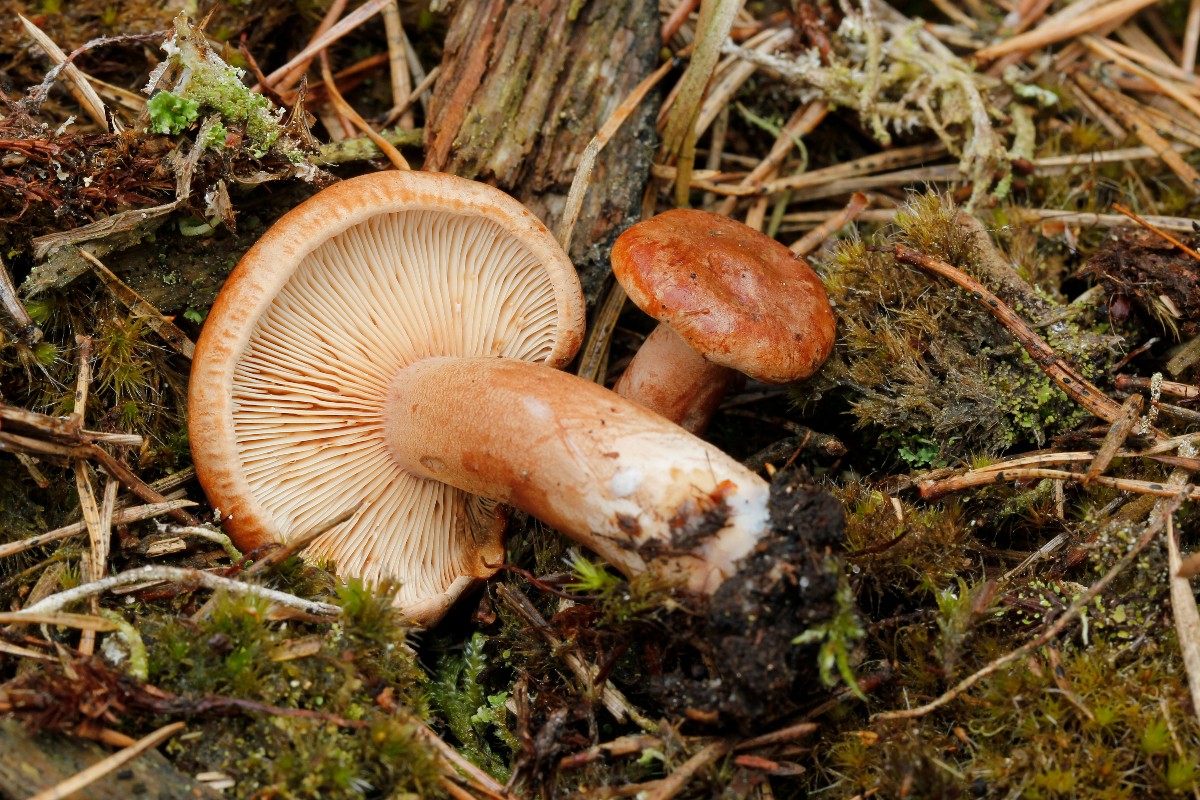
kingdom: Fungi
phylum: Basidiomycota
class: Agaricomycetes
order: Russulales
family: Russulaceae
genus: Lactarius
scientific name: Lactarius rufus
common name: rødbrun mælkehat
